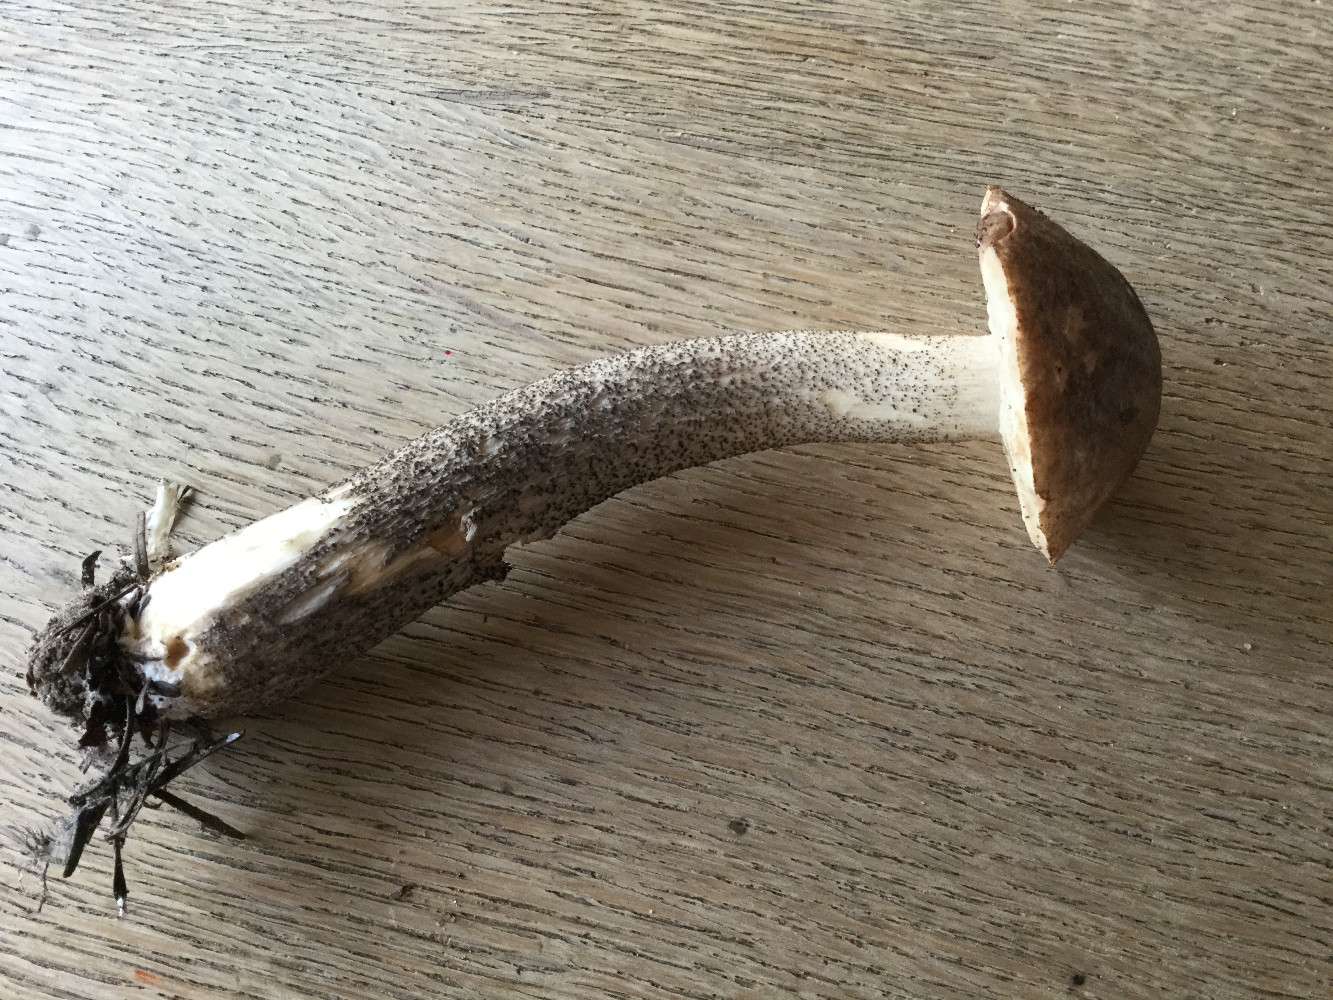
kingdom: Fungi
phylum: Basidiomycota
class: Agaricomycetes
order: Boletales
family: Boletaceae
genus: Leccinum
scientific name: Leccinum scabrum
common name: brun skælrørhat
